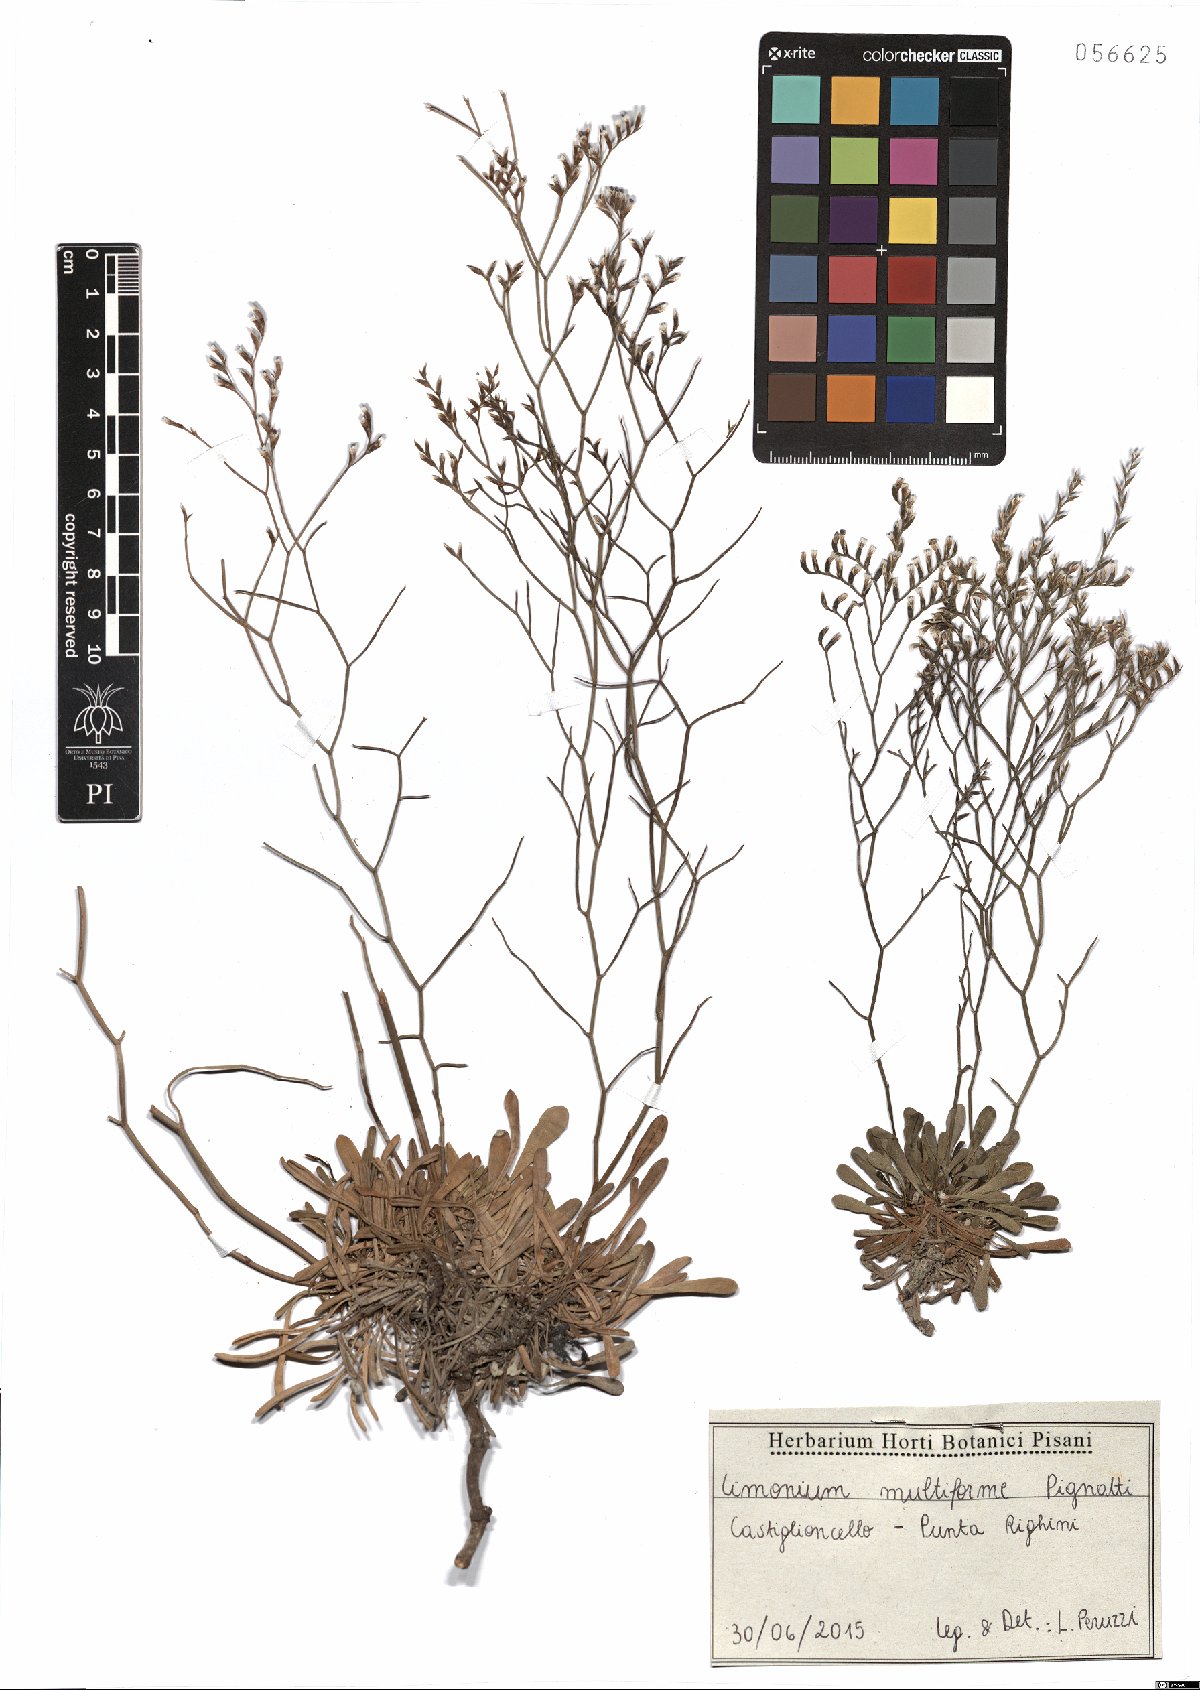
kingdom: Plantae
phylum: Tracheophyta
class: Magnoliopsida
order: Caryophyllales
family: Plumbaginaceae
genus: Limonium
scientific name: Limonium multiforme
